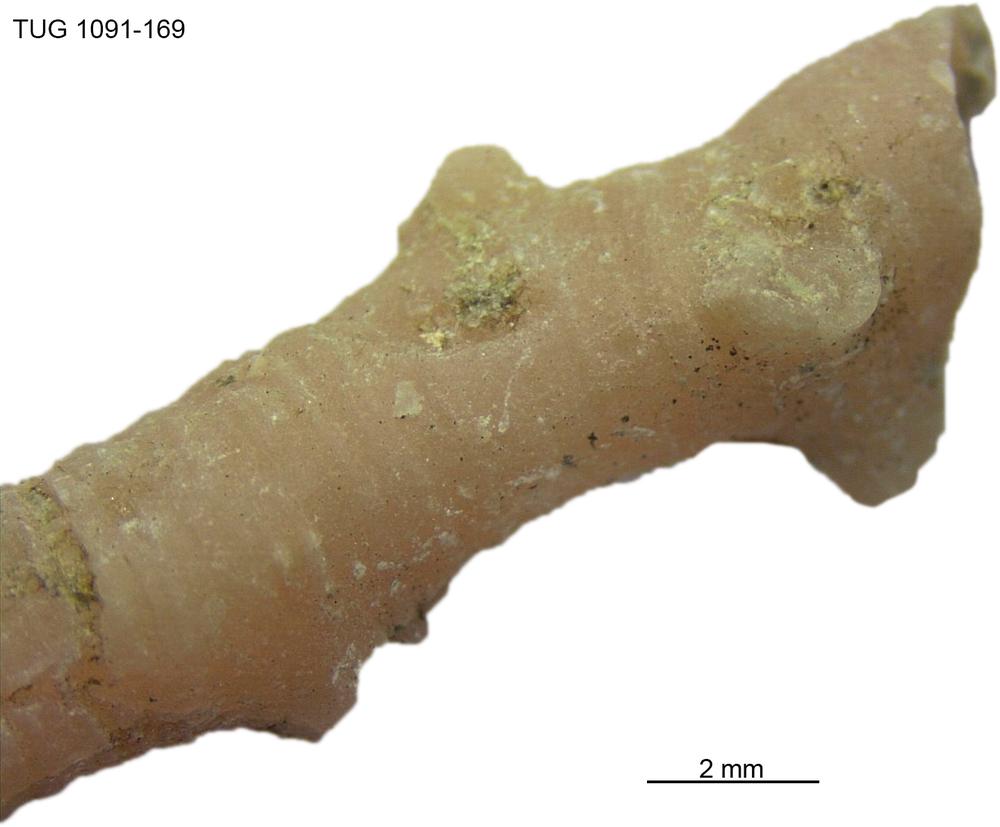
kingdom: Animalia
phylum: Echinodermata
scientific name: Echinodermata
